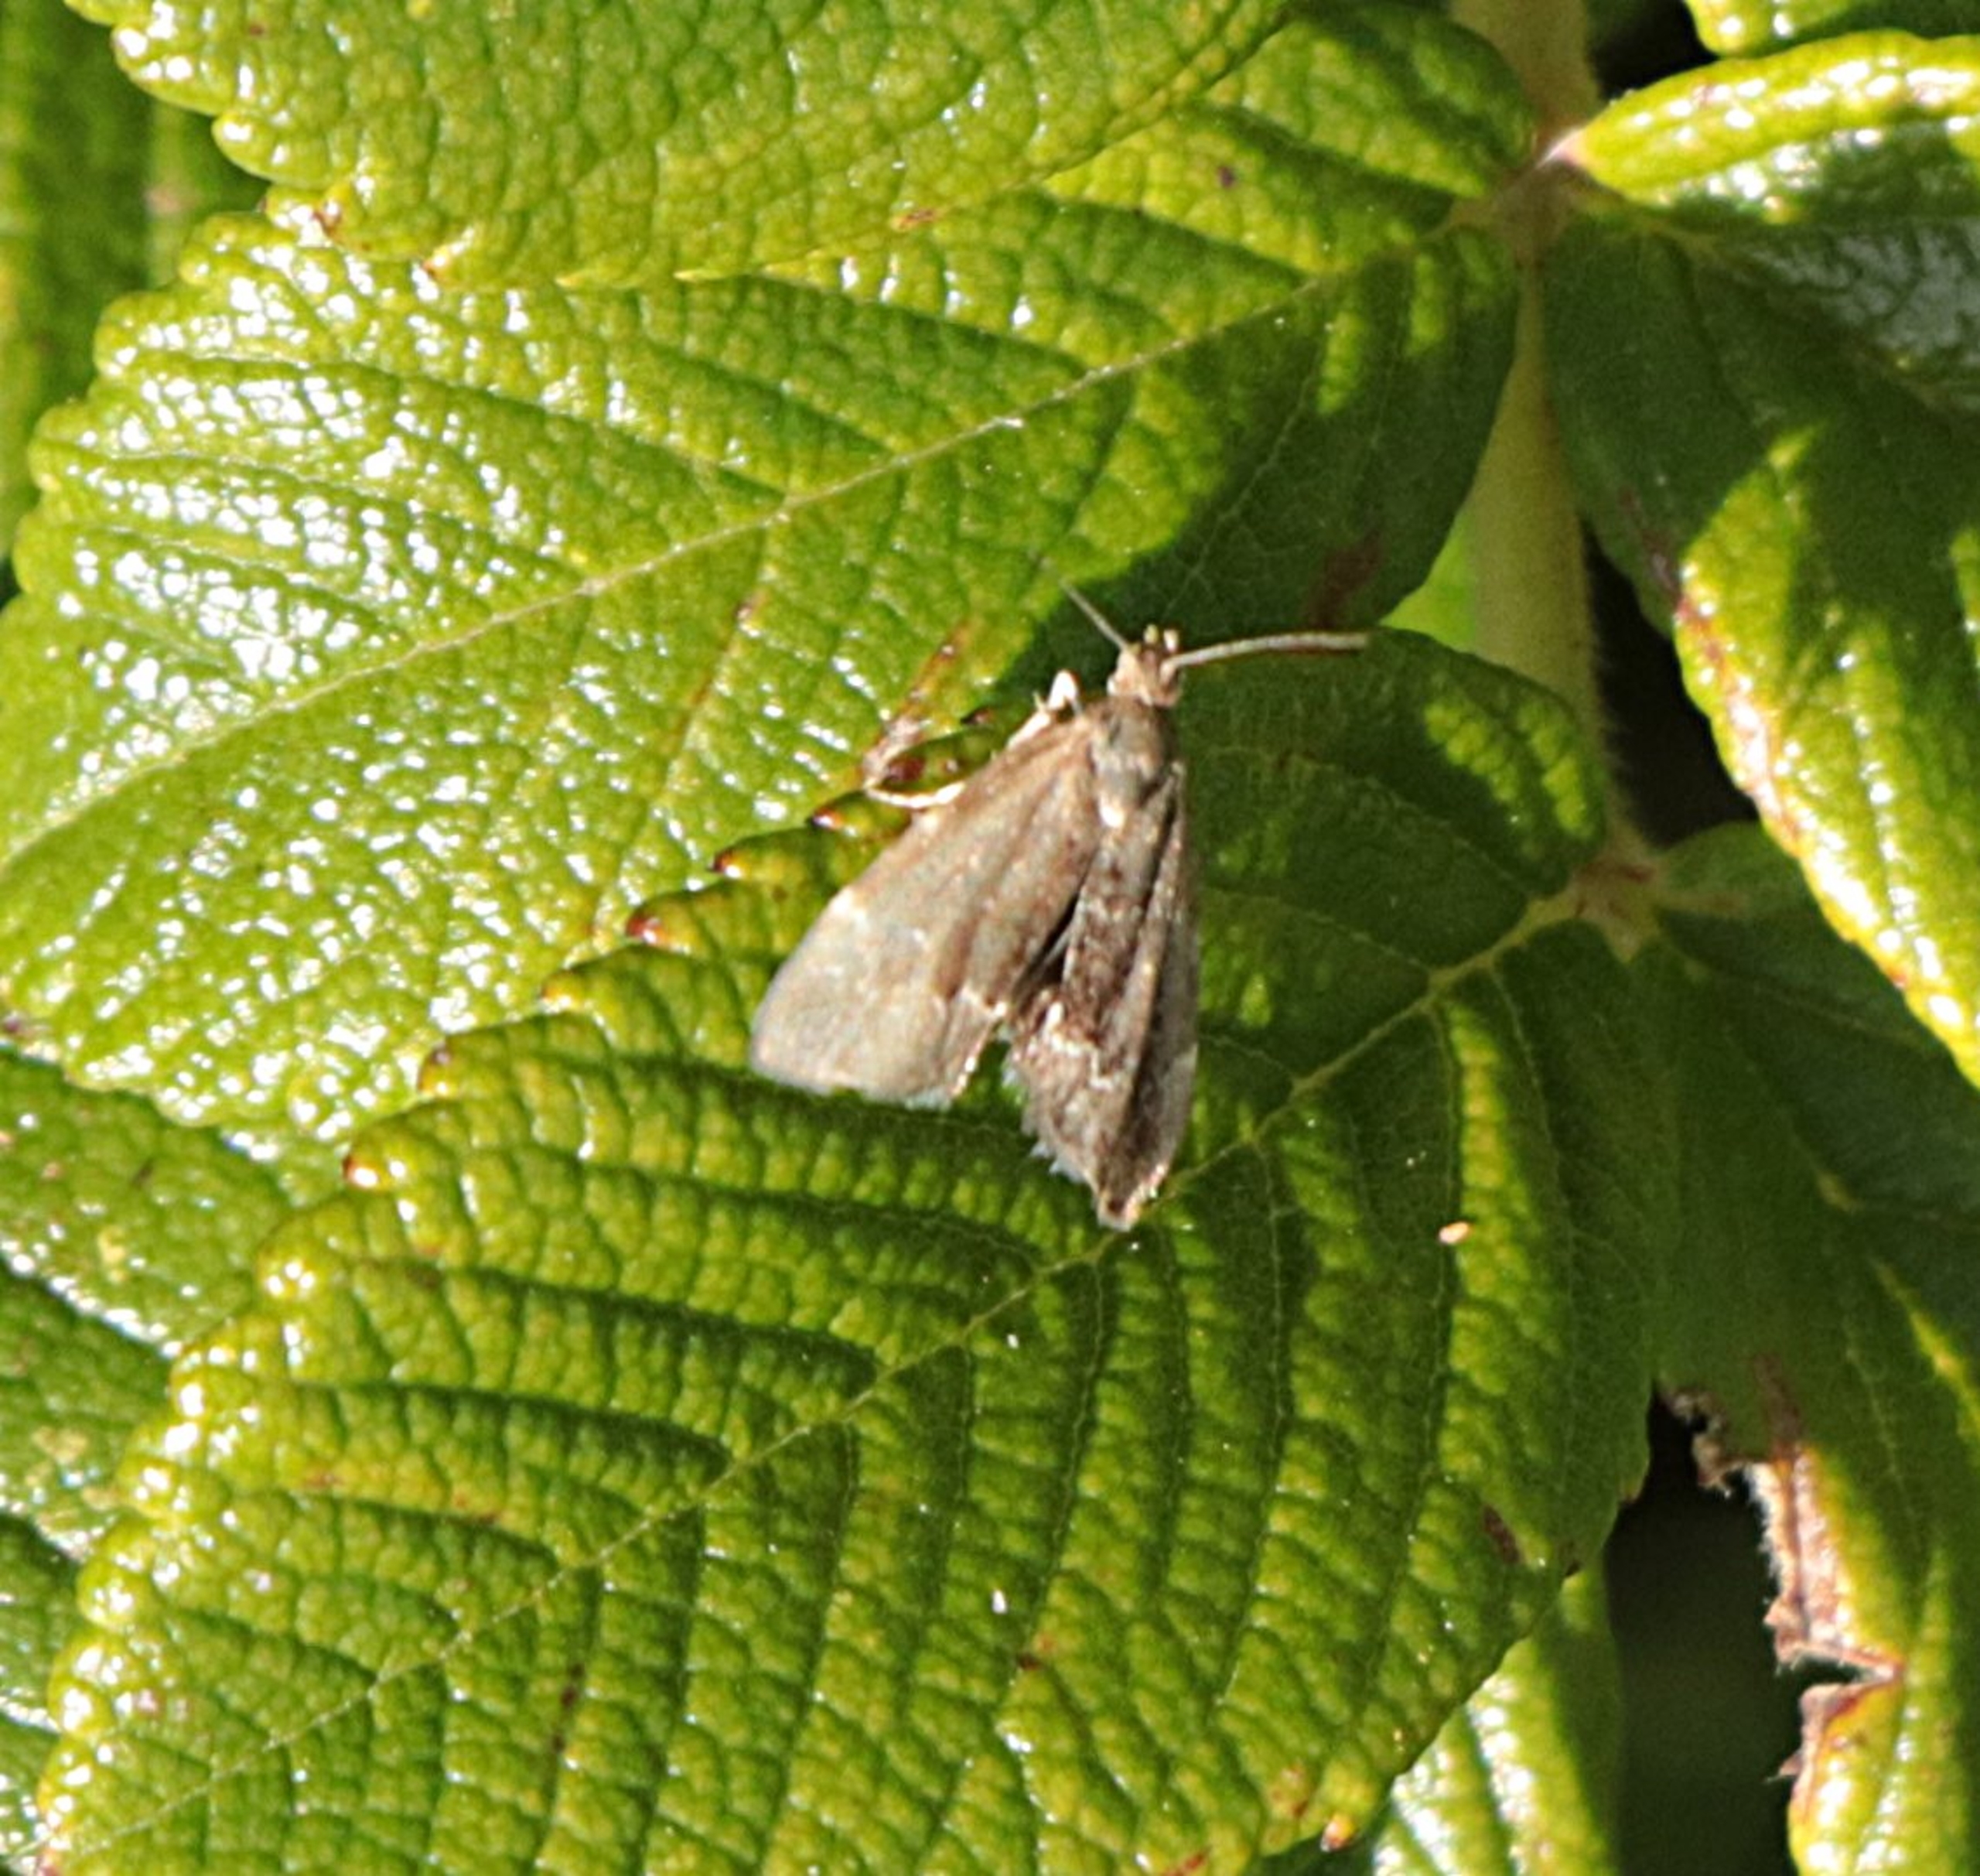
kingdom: Animalia
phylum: Arthropoda
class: Insecta
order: Lepidoptera
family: Choreutidae
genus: Anthophila
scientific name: Anthophila fabriciana
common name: Bredvinget nældevikler
